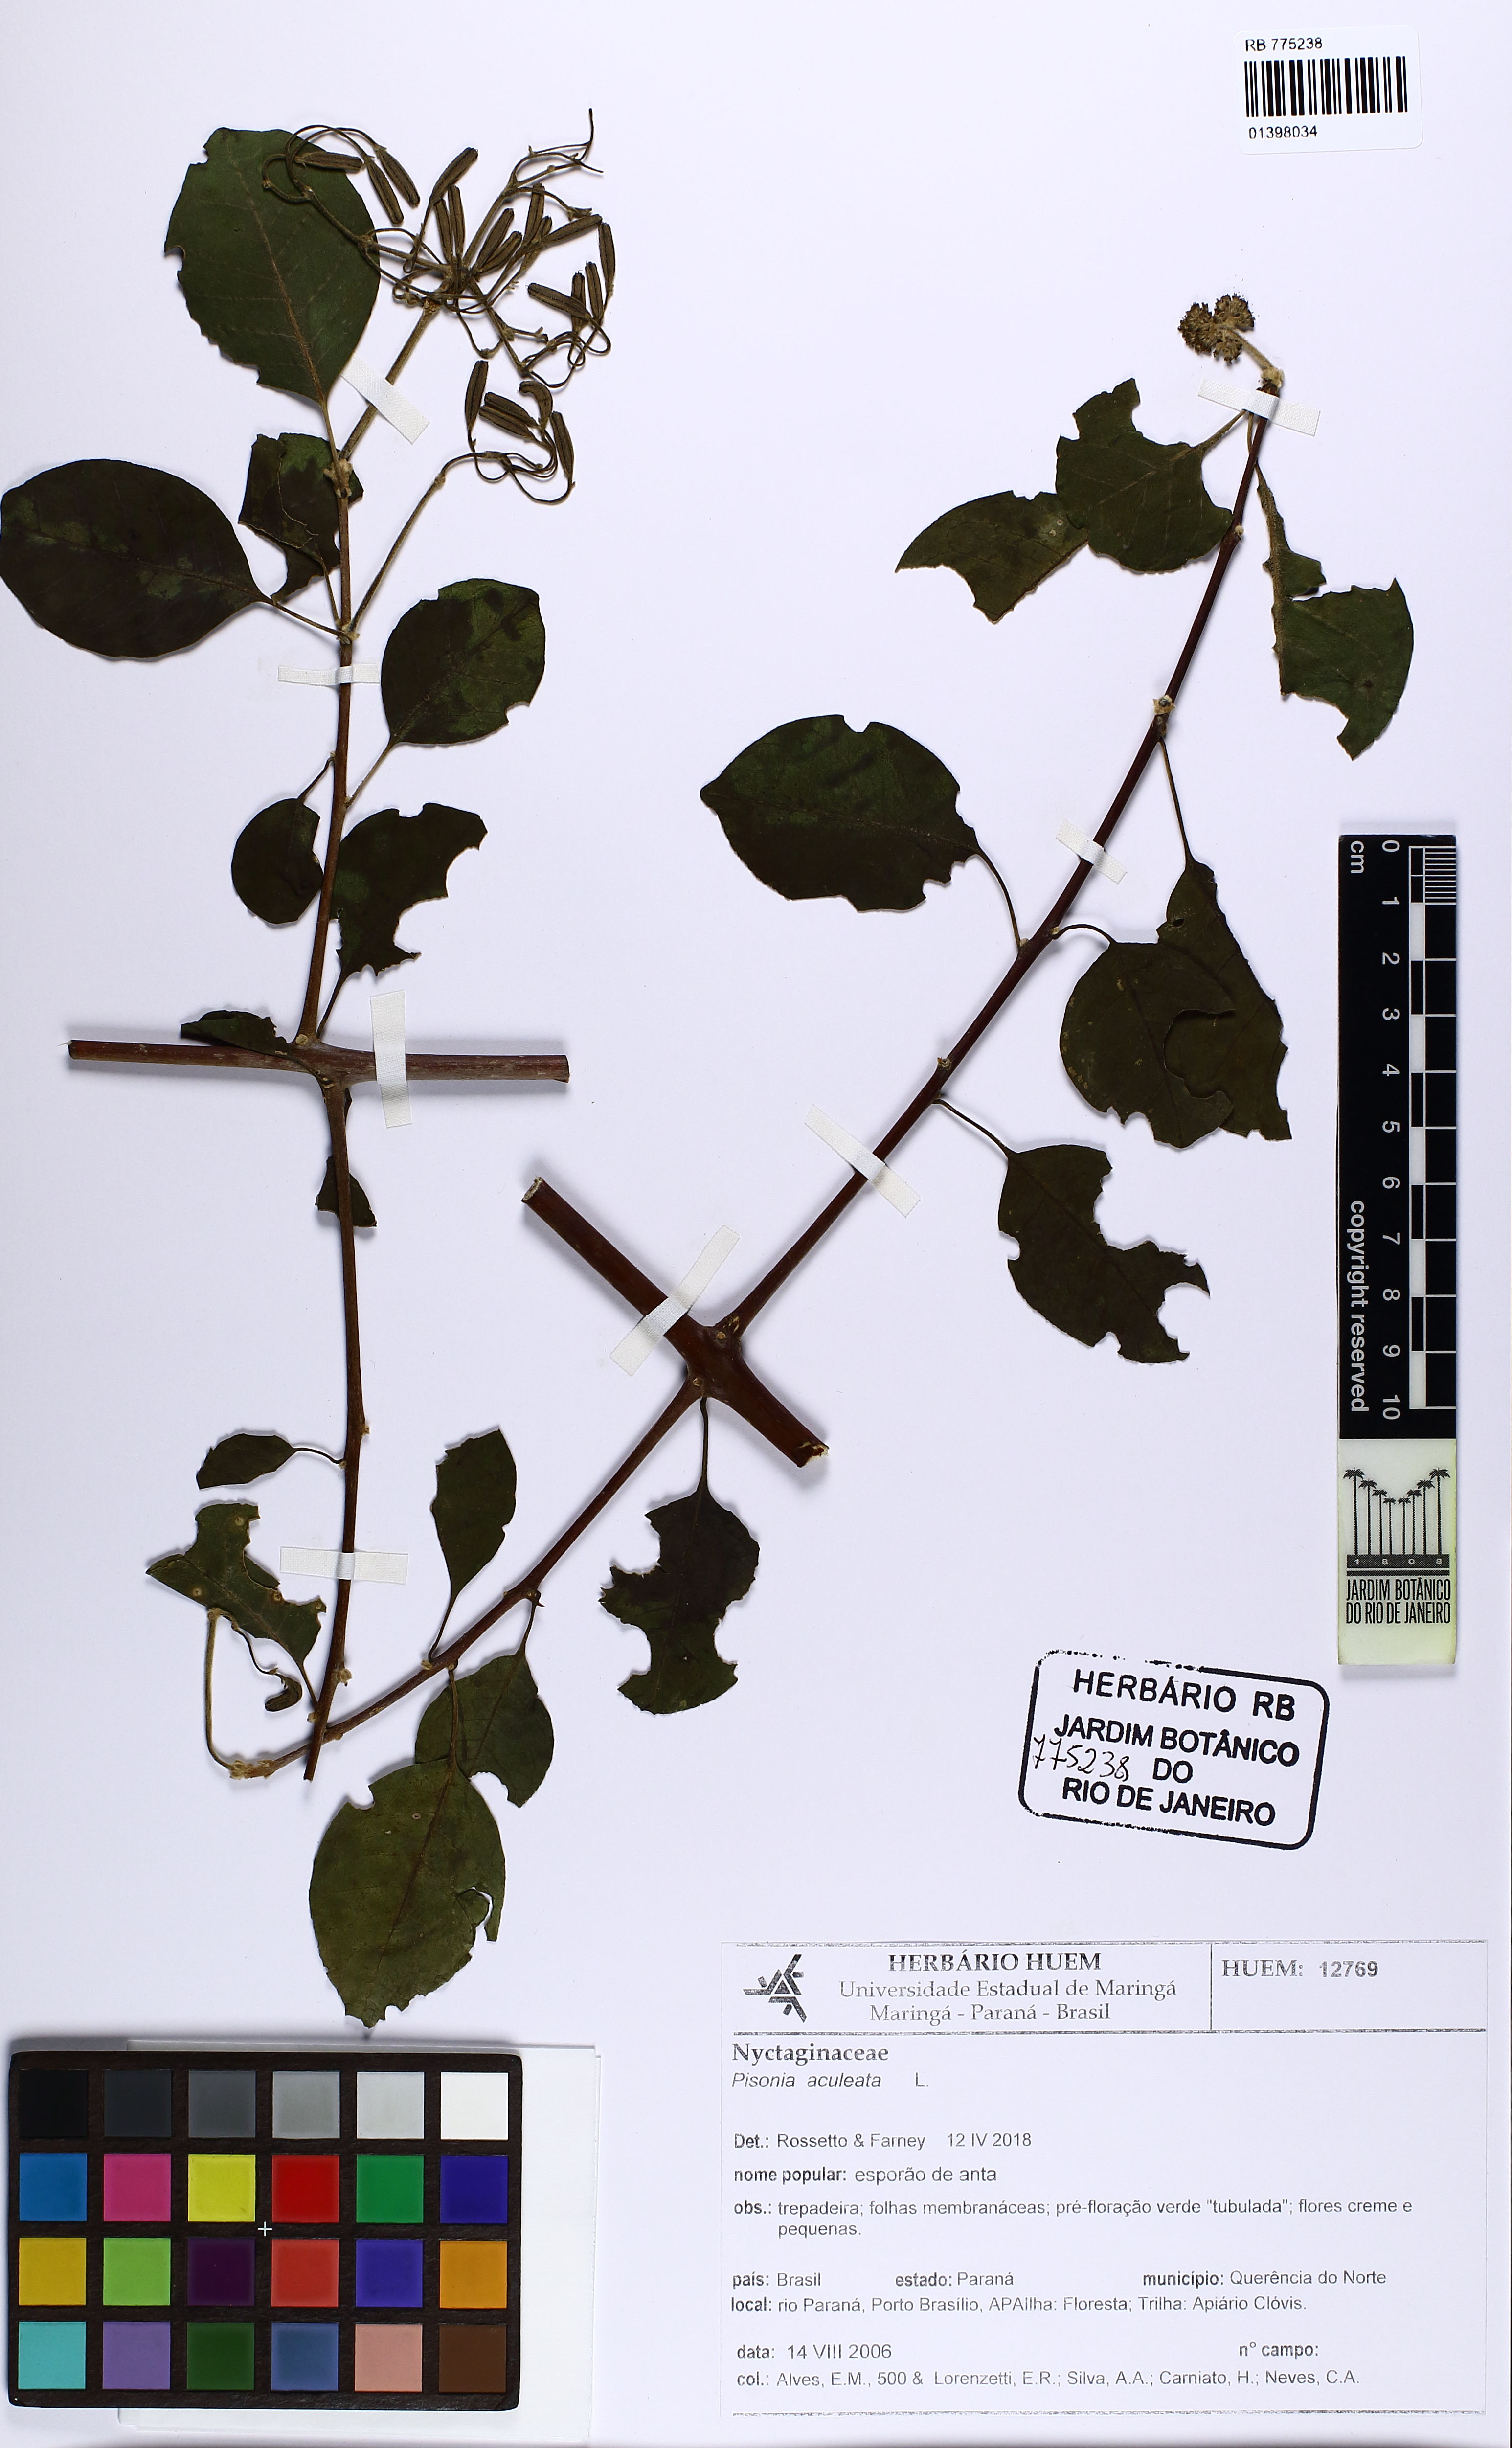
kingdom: Plantae
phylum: Tracheophyta
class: Magnoliopsida
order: Caryophyllales
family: Nyctaginaceae
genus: Pisonia
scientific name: Pisonia aculeata
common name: Cockspur vine
